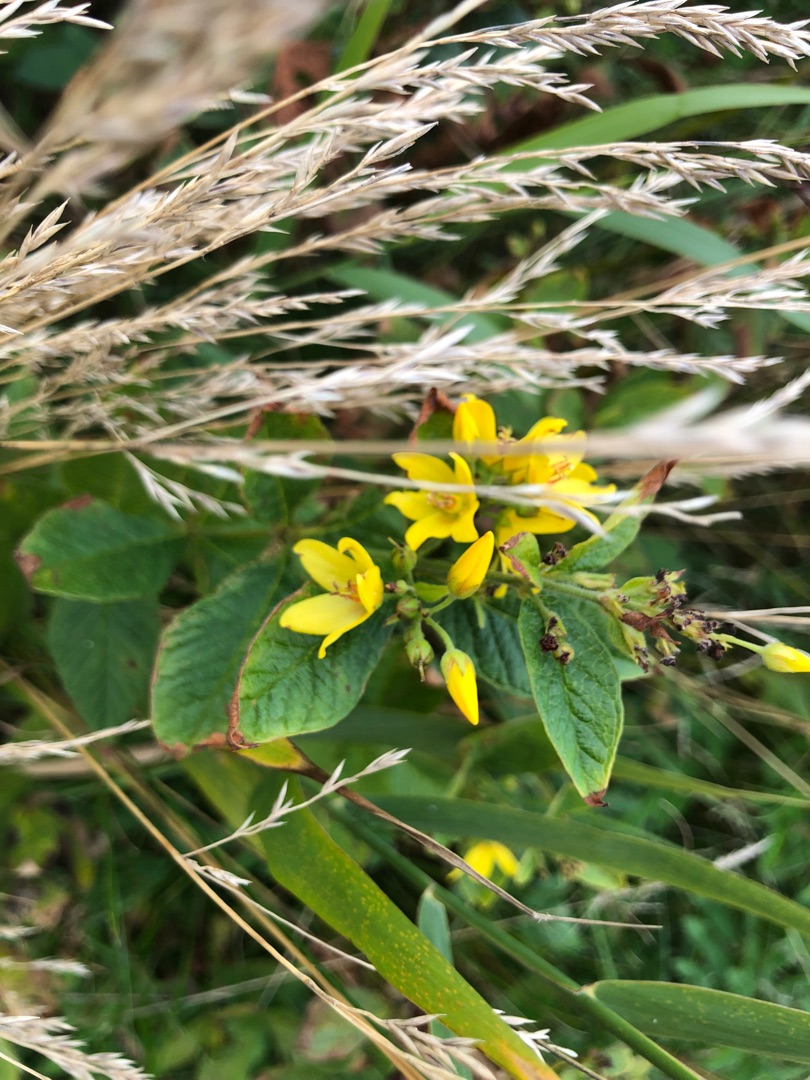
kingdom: Plantae
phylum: Tracheophyta
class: Magnoliopsida
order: Ericales
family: Primulaceae
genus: Lysimachia
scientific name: Lysimachia vulgaris
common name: Almindelig fredløs
